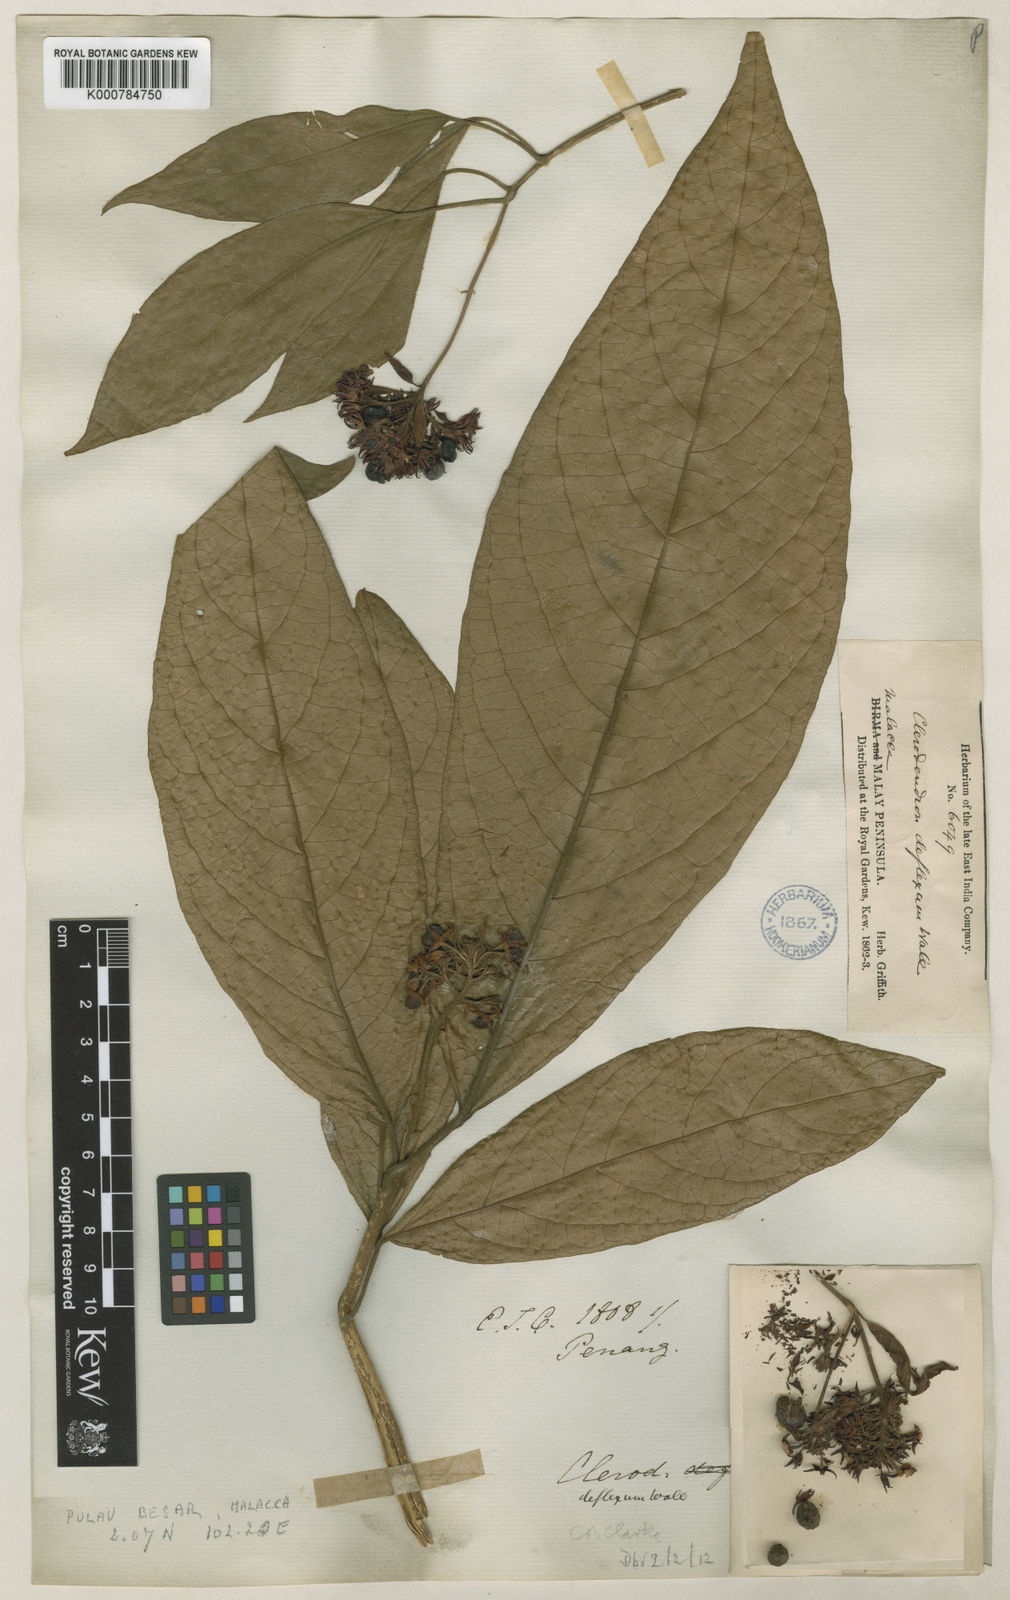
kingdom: Plantae
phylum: Tracheophyta
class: Magnoliopsida
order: Lamiales
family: Lamiaceae
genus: Clerodendrum
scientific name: Clerodendrum deflexum
